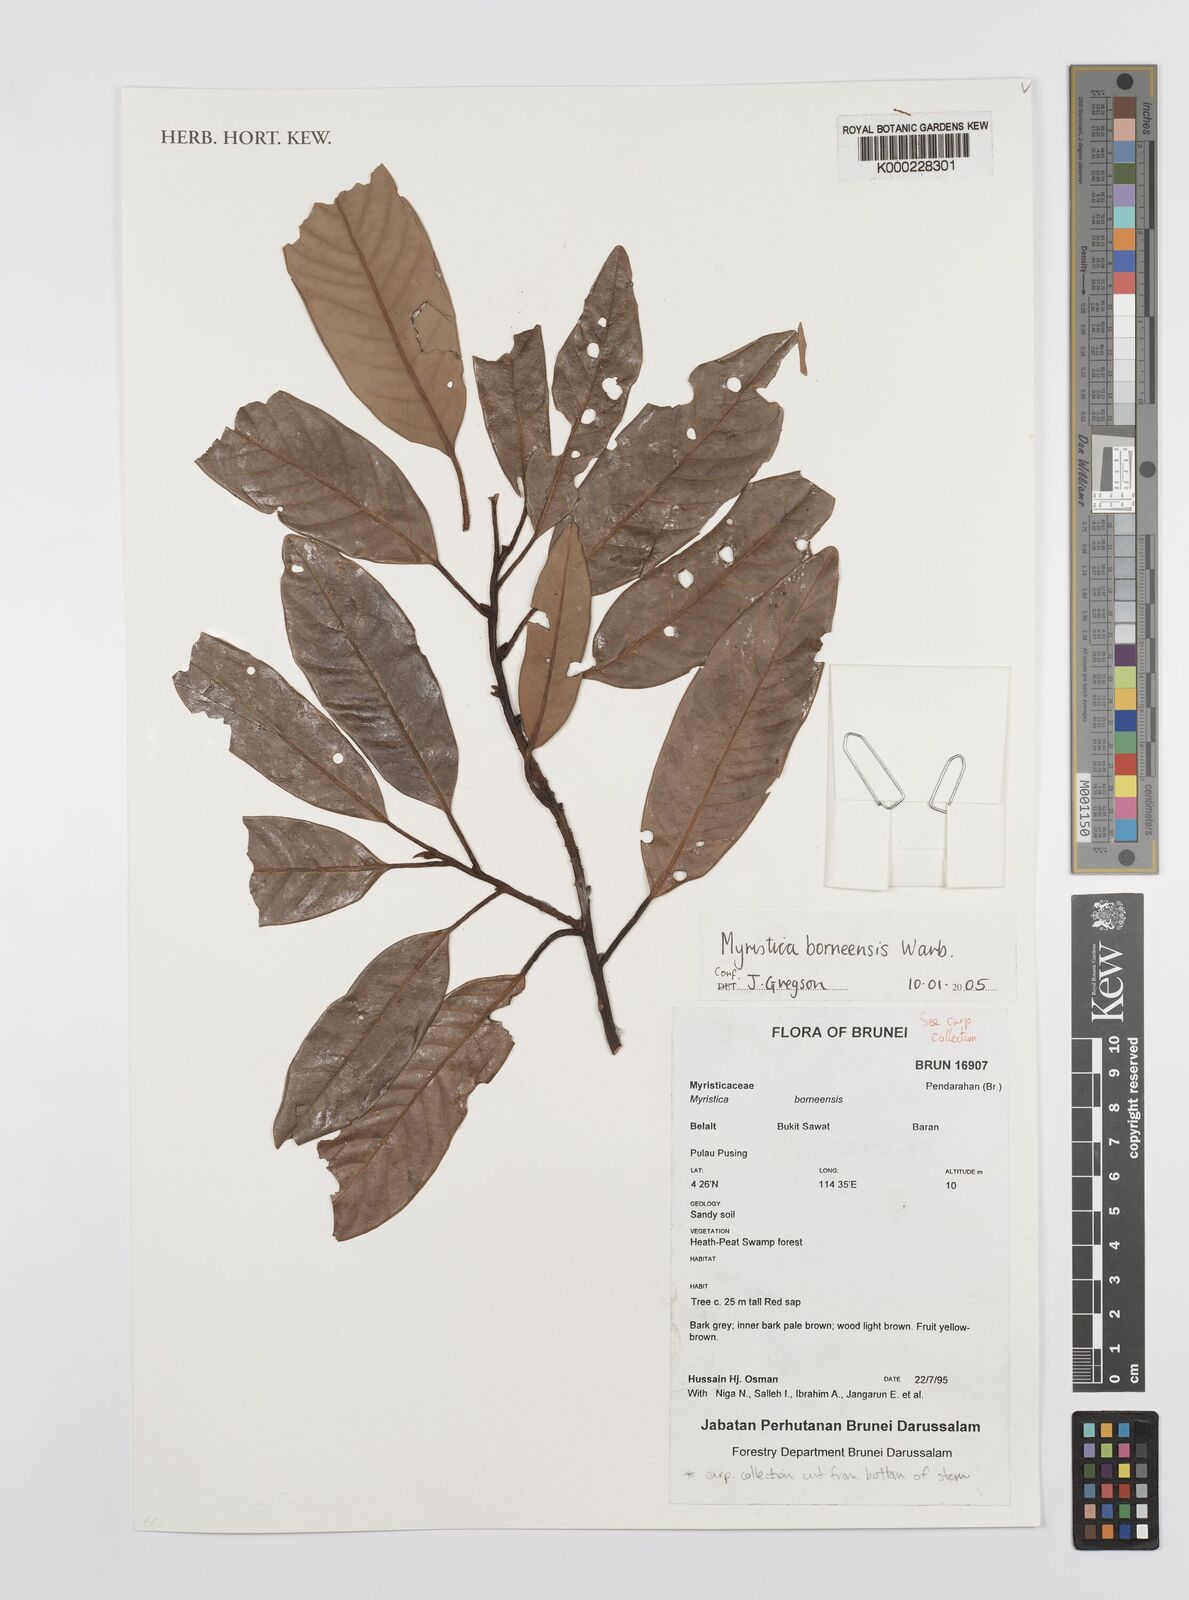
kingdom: Plantae
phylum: Tracheophyta
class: Magnoliopsida
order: Magnoliales
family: Myristicaceae
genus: Myristica
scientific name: Myristica borneensis
